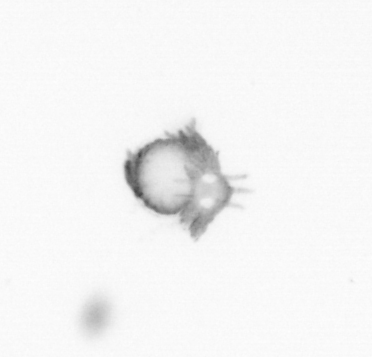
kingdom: Animalia
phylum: Annelida
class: Polychaeta
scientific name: Polychaeta
